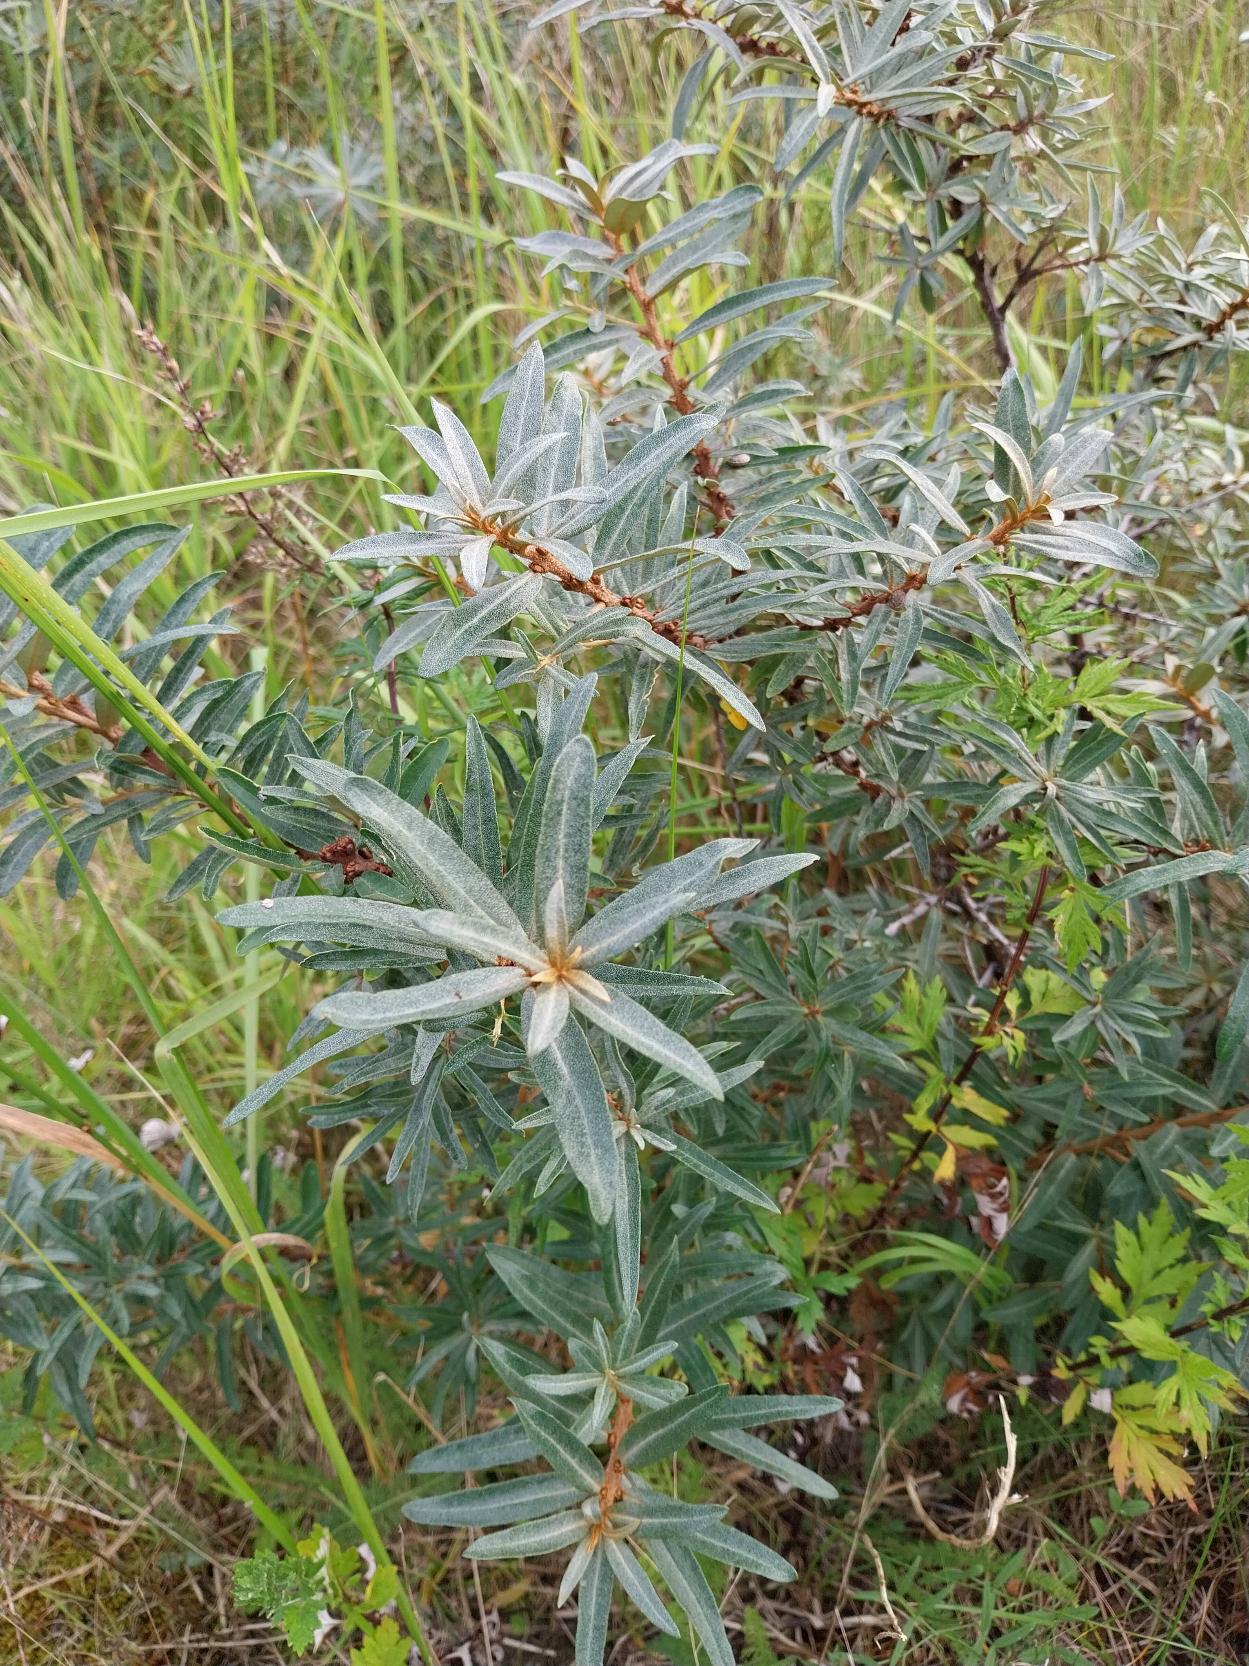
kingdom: Plantae
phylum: Tracheophyta
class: Magnoliopsida
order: Rosales
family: Elaeagnaceae
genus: Hippophae
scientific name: Hippophae rhamnoides
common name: Havtorn
